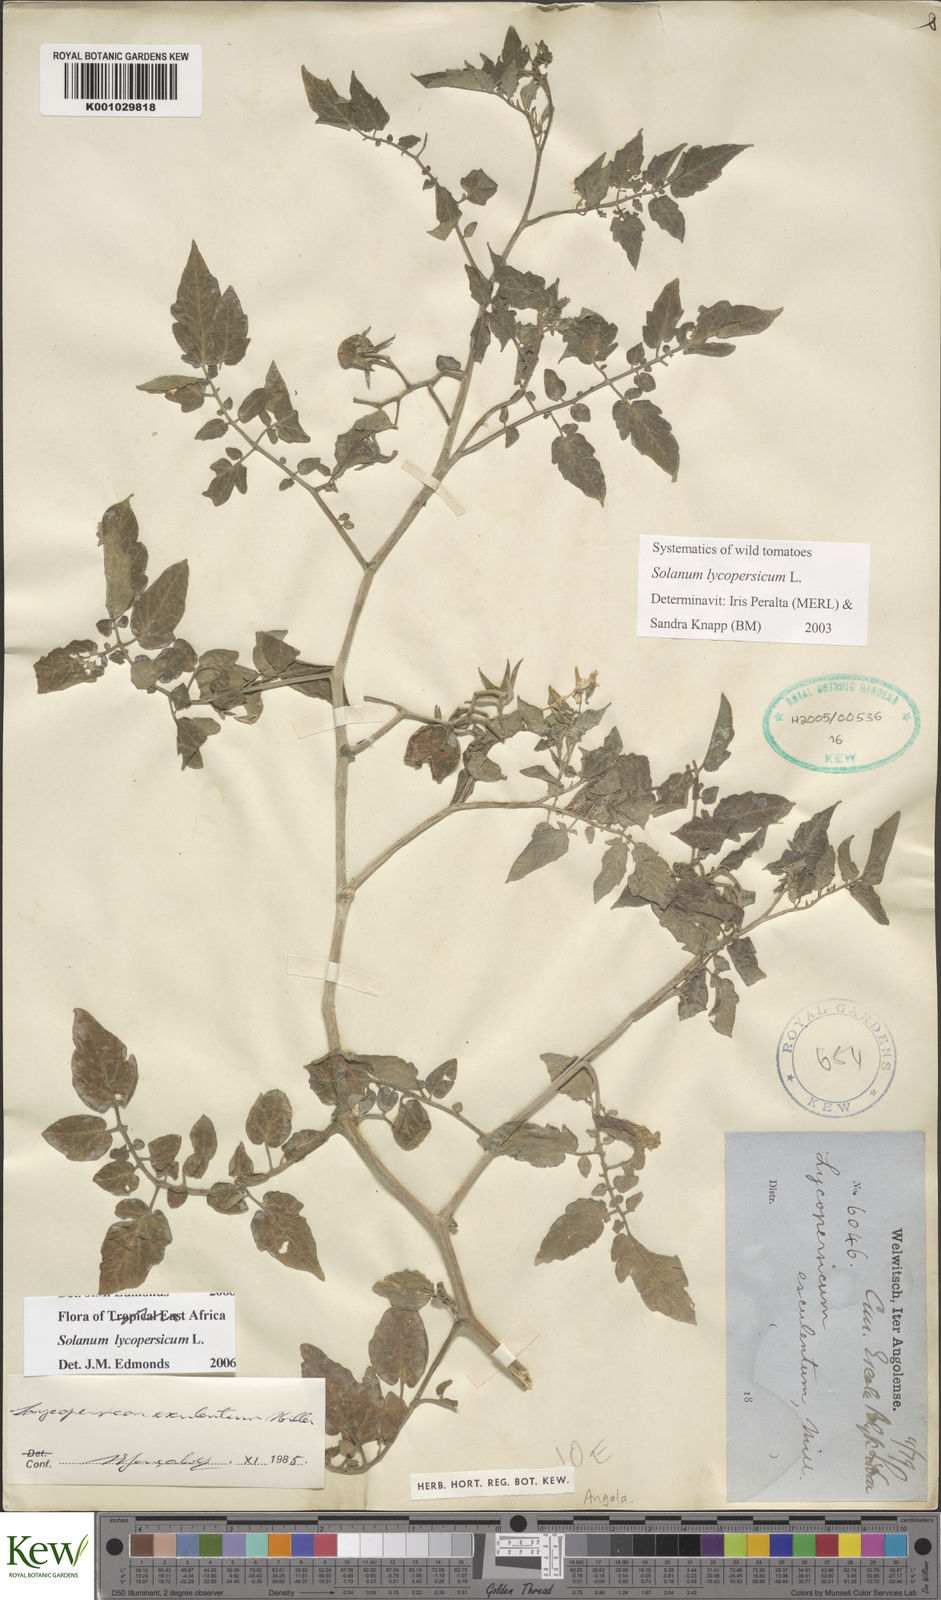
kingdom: Plantae
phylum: Tracheophyta
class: Magnoliopsida
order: Solanales
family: Solanaceae
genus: Solanum
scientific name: Solanum lycopersicum
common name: Garden tomato
